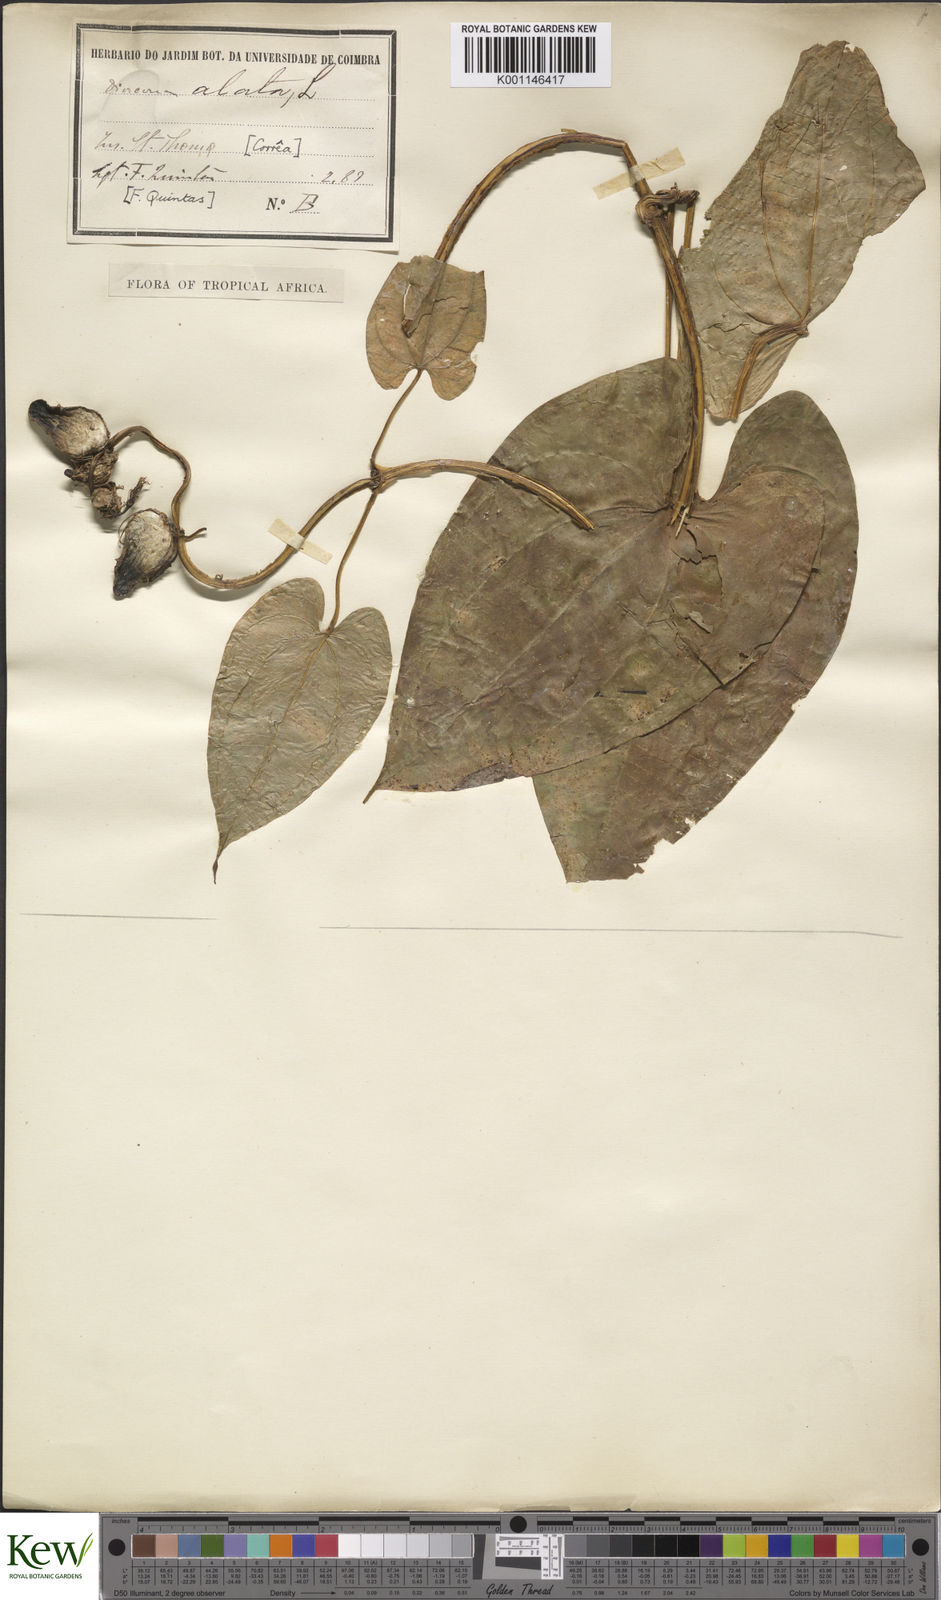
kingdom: Plantae
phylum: Tracheophyta
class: Liliopsida
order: Dioscoreales
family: Dioscoreaceae
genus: Dioscorea
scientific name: Dioscorea alata
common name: Water yam
